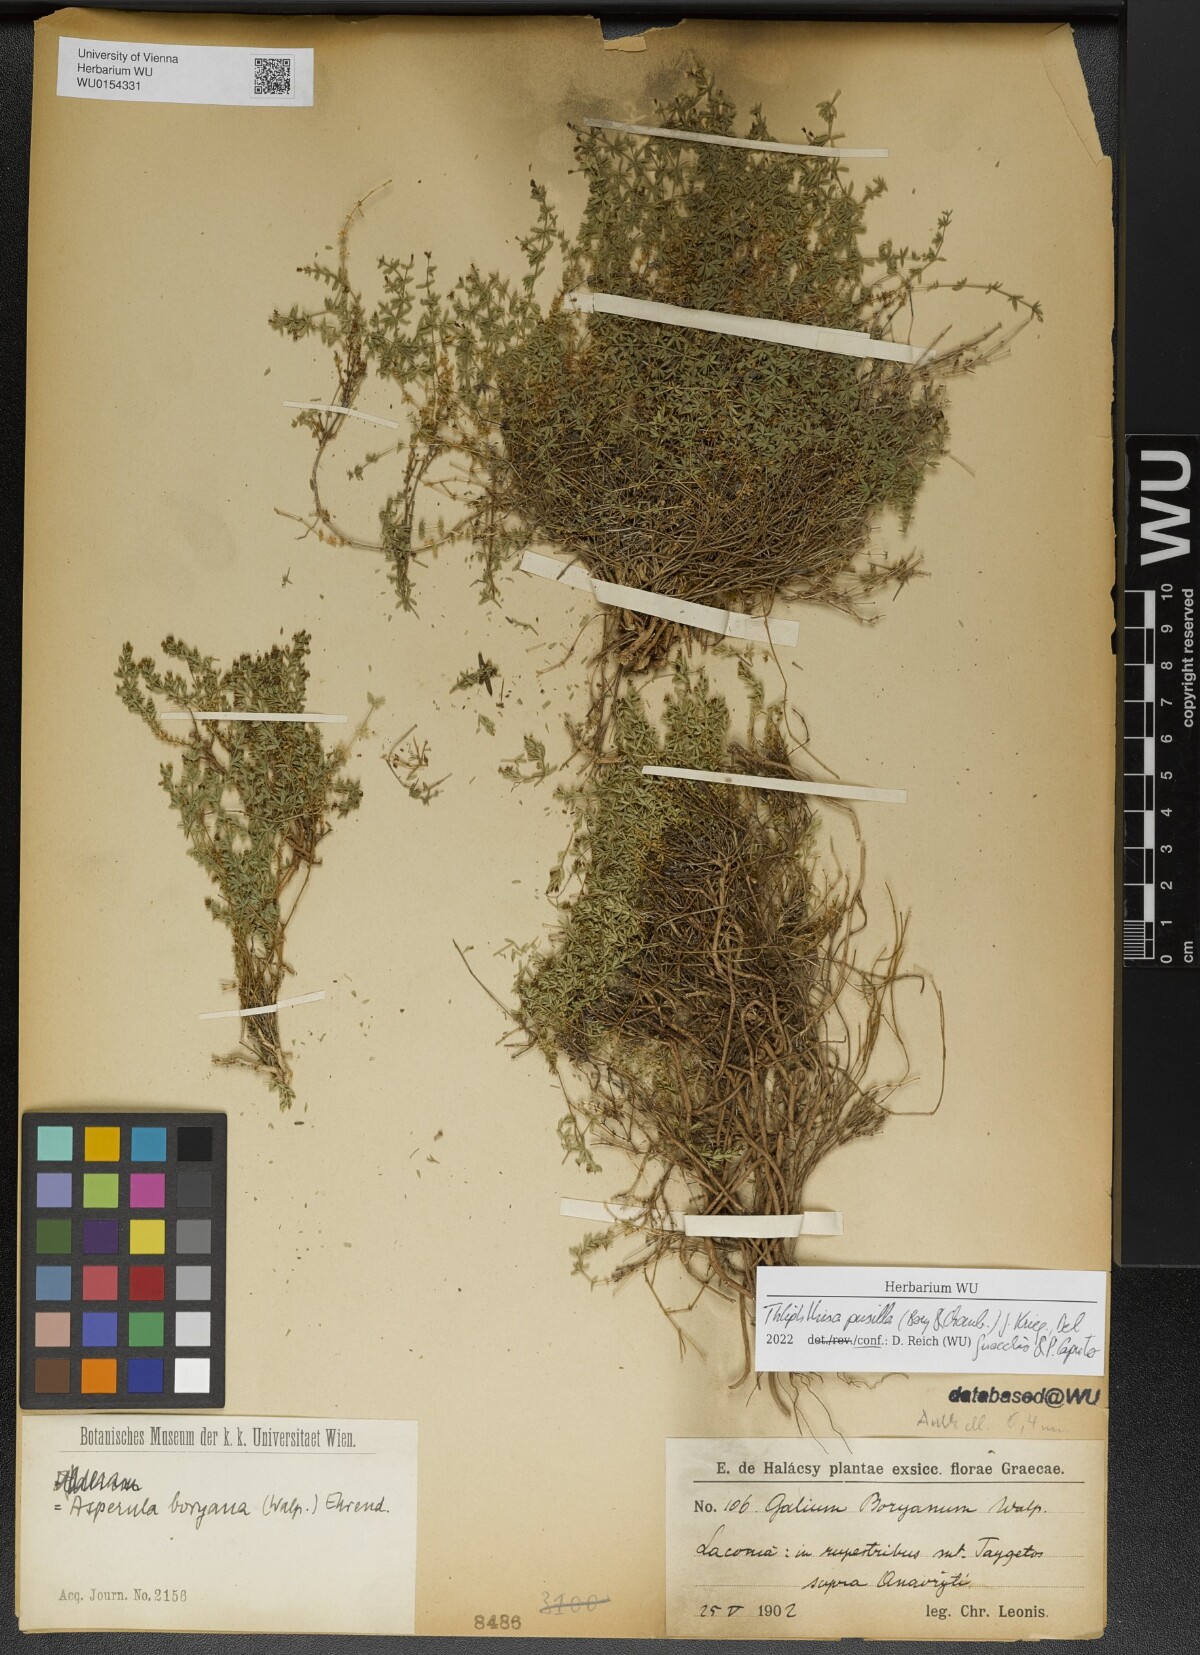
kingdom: Plantae
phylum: Tracheophyta
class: Magnoliopsida
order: Gentianales
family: Rubiaceae
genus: Thliphthisa
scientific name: Thliphthisa pusilla
